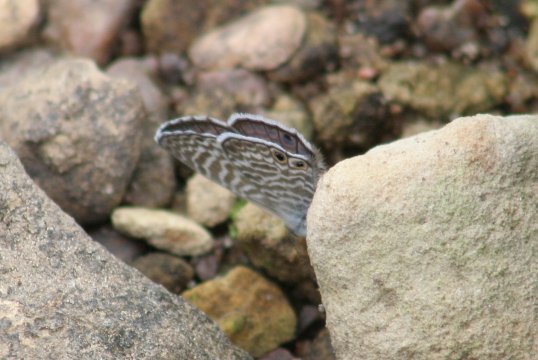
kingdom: Animalia
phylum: Arthropoda
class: Insecta
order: Lepidoptera
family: Lycaenidae
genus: Leptotes
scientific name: Leptotes marina
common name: Marine Blue
